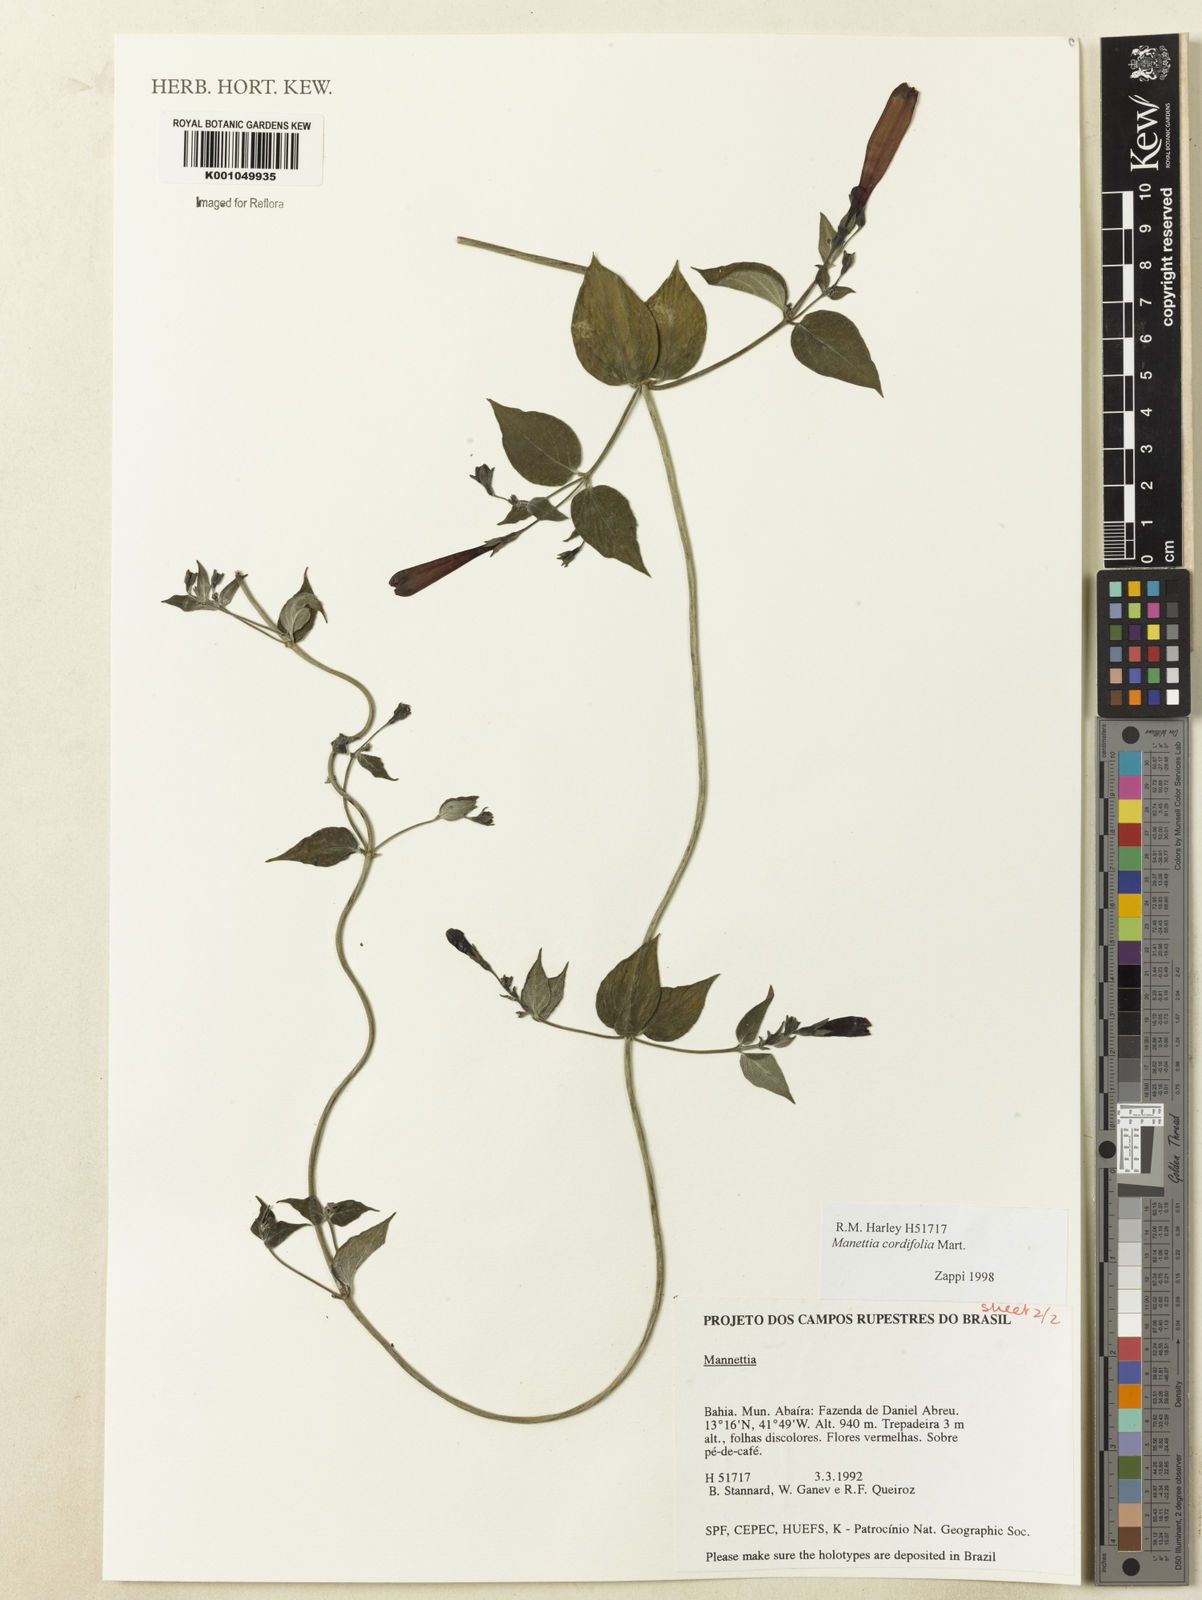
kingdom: Plantae
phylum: Tracheophyta
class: Magnoliopsida
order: Gentianales
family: Rubiaceae
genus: Manettia
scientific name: Manettia cordifolia
